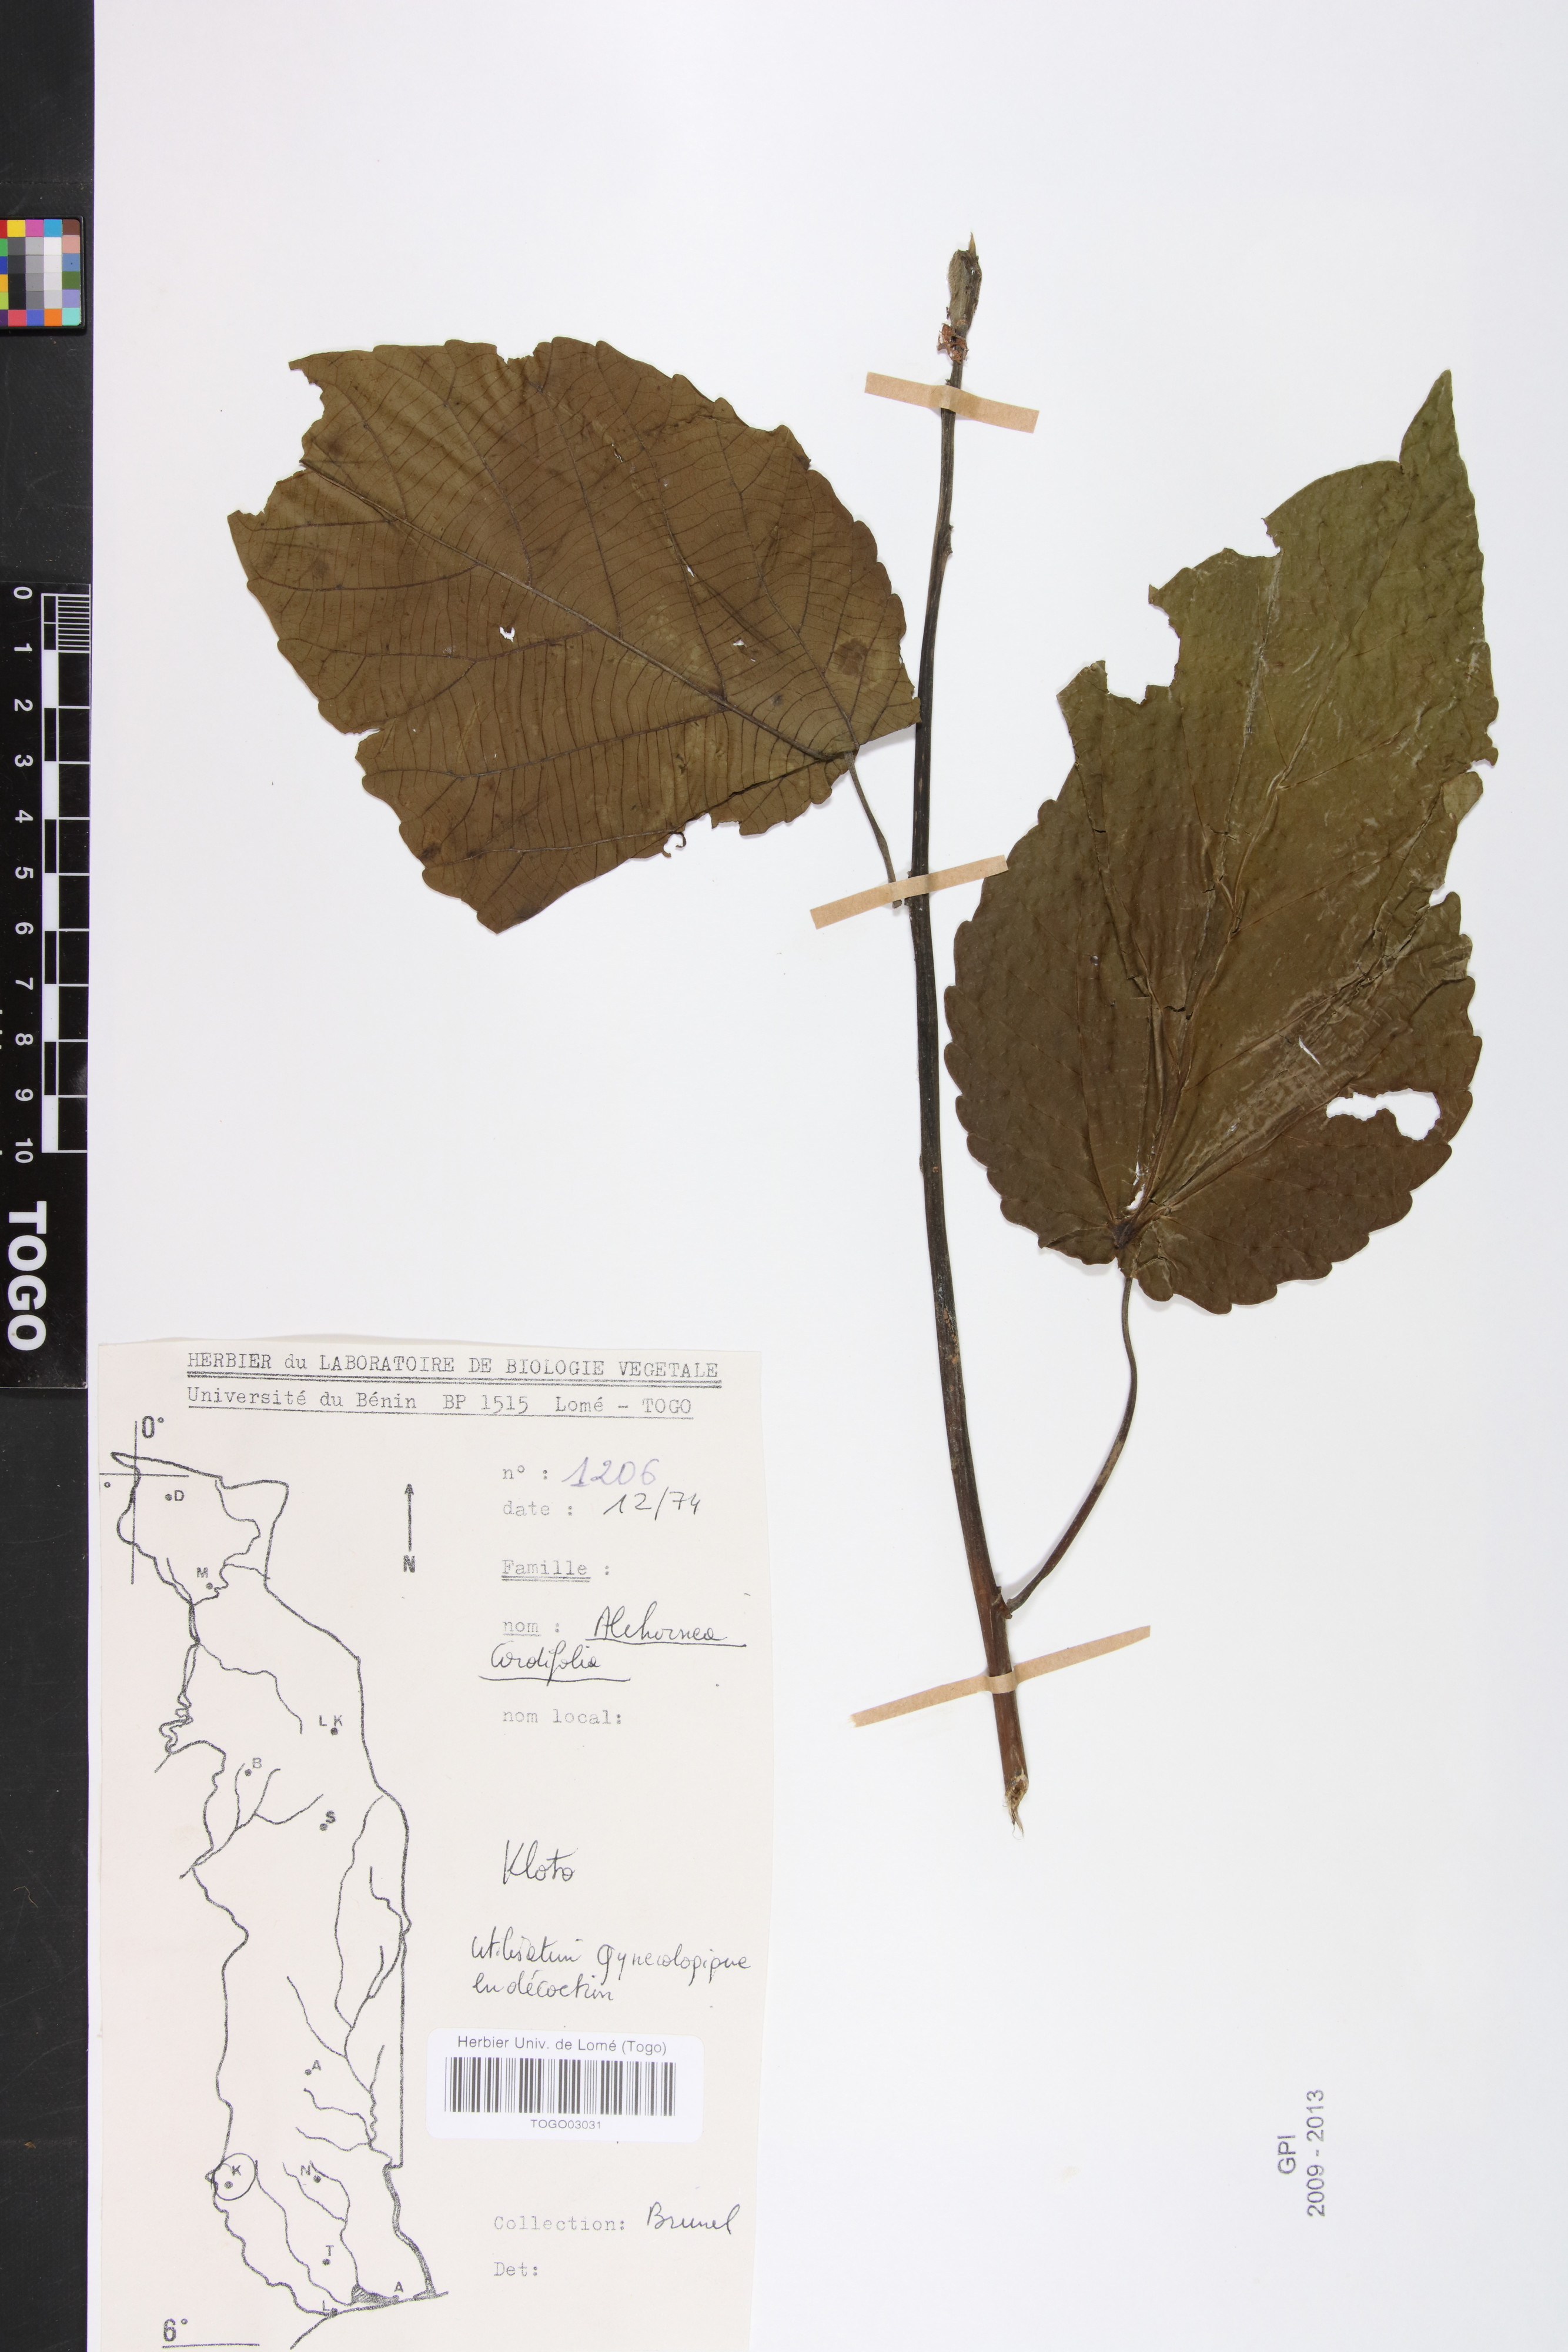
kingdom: Plantae
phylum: Tracheophyta
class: Magnoliopsida
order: Malpighiales
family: Euphorbiaceae
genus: Alchornea
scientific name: Alchornea cordifolia
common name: Christmasbush
